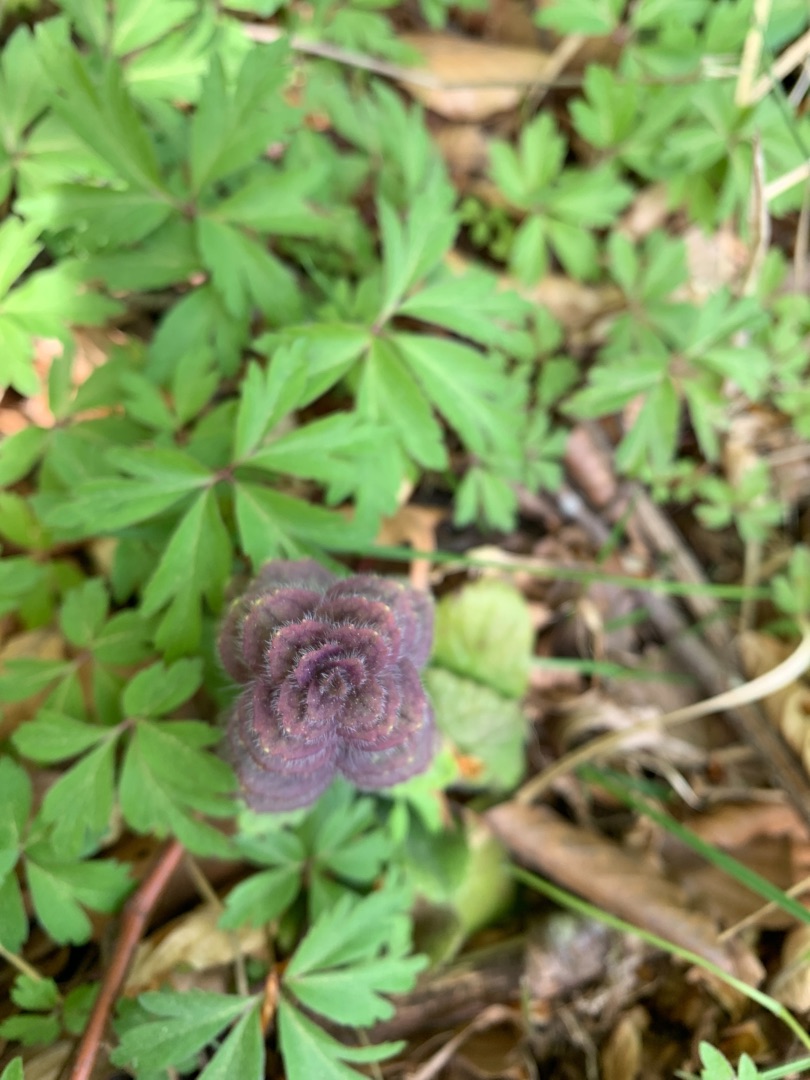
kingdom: Plantae
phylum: Tracheophyta
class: Magnoliopsida
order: Lamiales
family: Lamiaceae
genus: Ajuga
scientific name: Ajuga pyramidalis
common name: Pyramide-læbeløs
